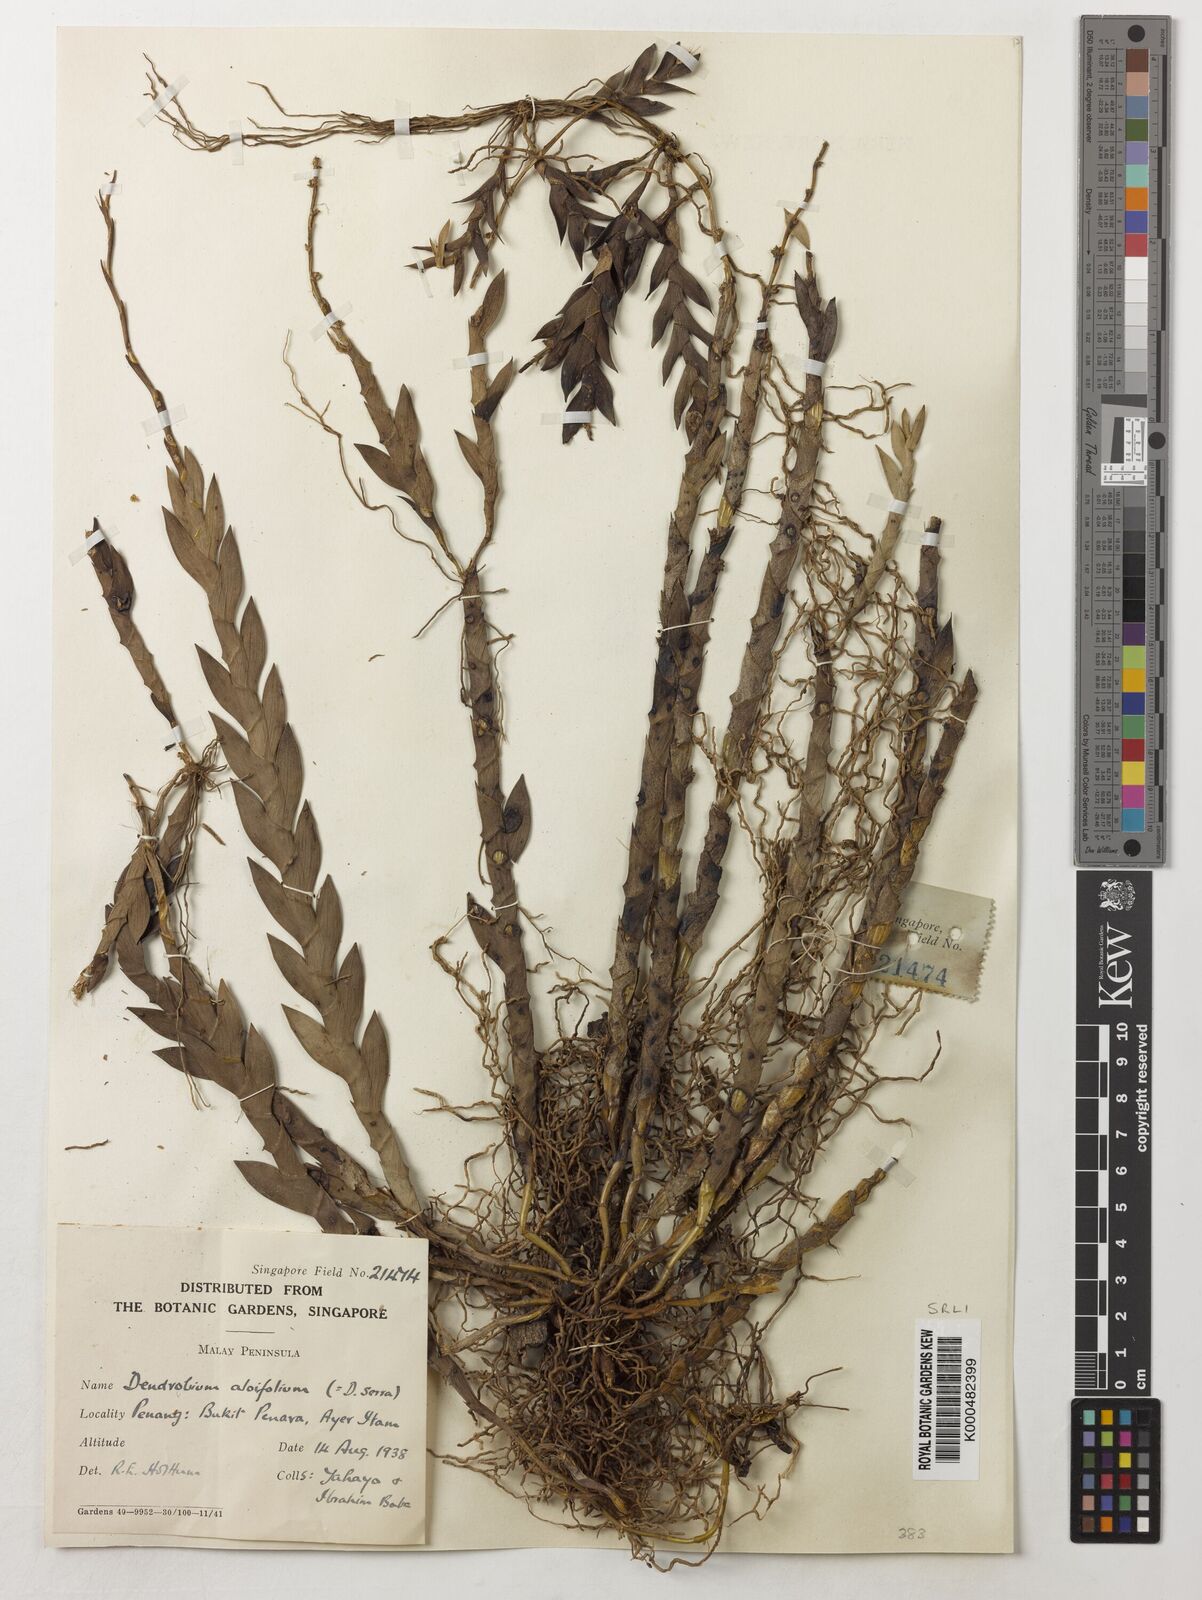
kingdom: Plantae
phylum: Tracheophyta
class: Liliopsida
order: Asparagales
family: Orchidaceae
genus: Dendrobium
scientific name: Dendrobium aloifolium
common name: Aloe-like dendrobium
